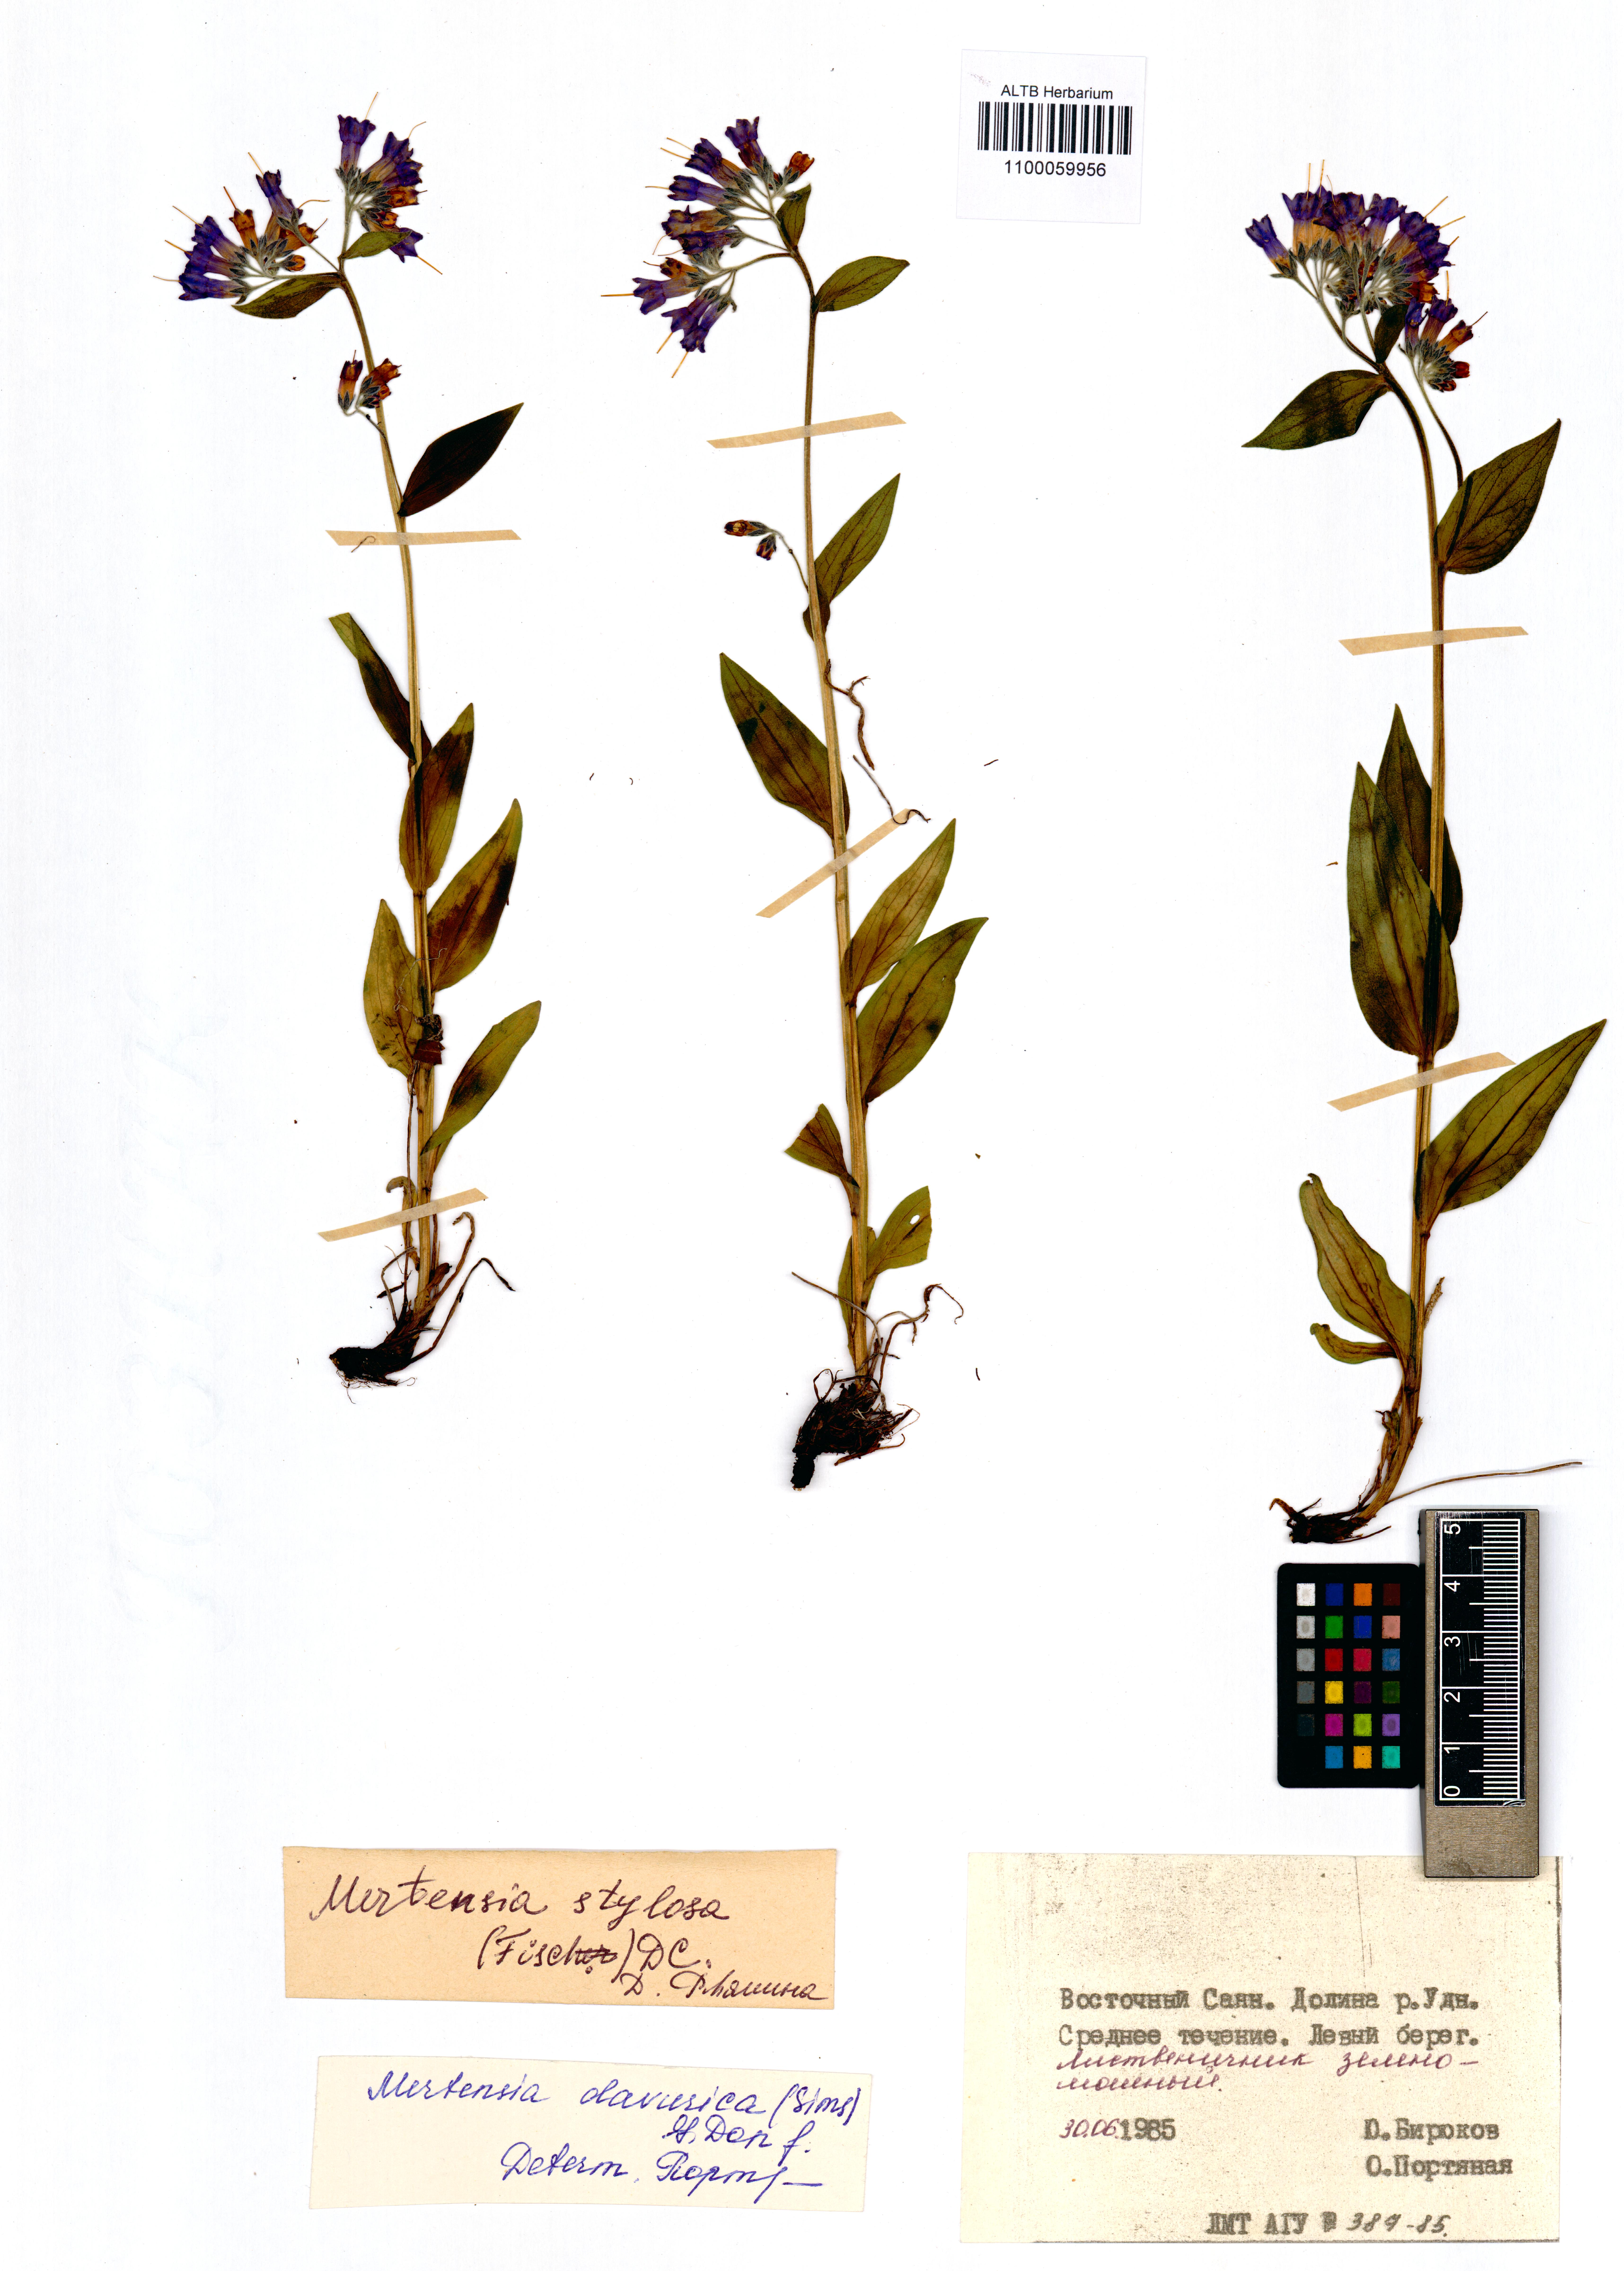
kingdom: Plantae
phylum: Tracheophyta
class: Magnoliopsida
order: Boraginales
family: Boraginaceae
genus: Mertensia
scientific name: Mertensia stylosa
